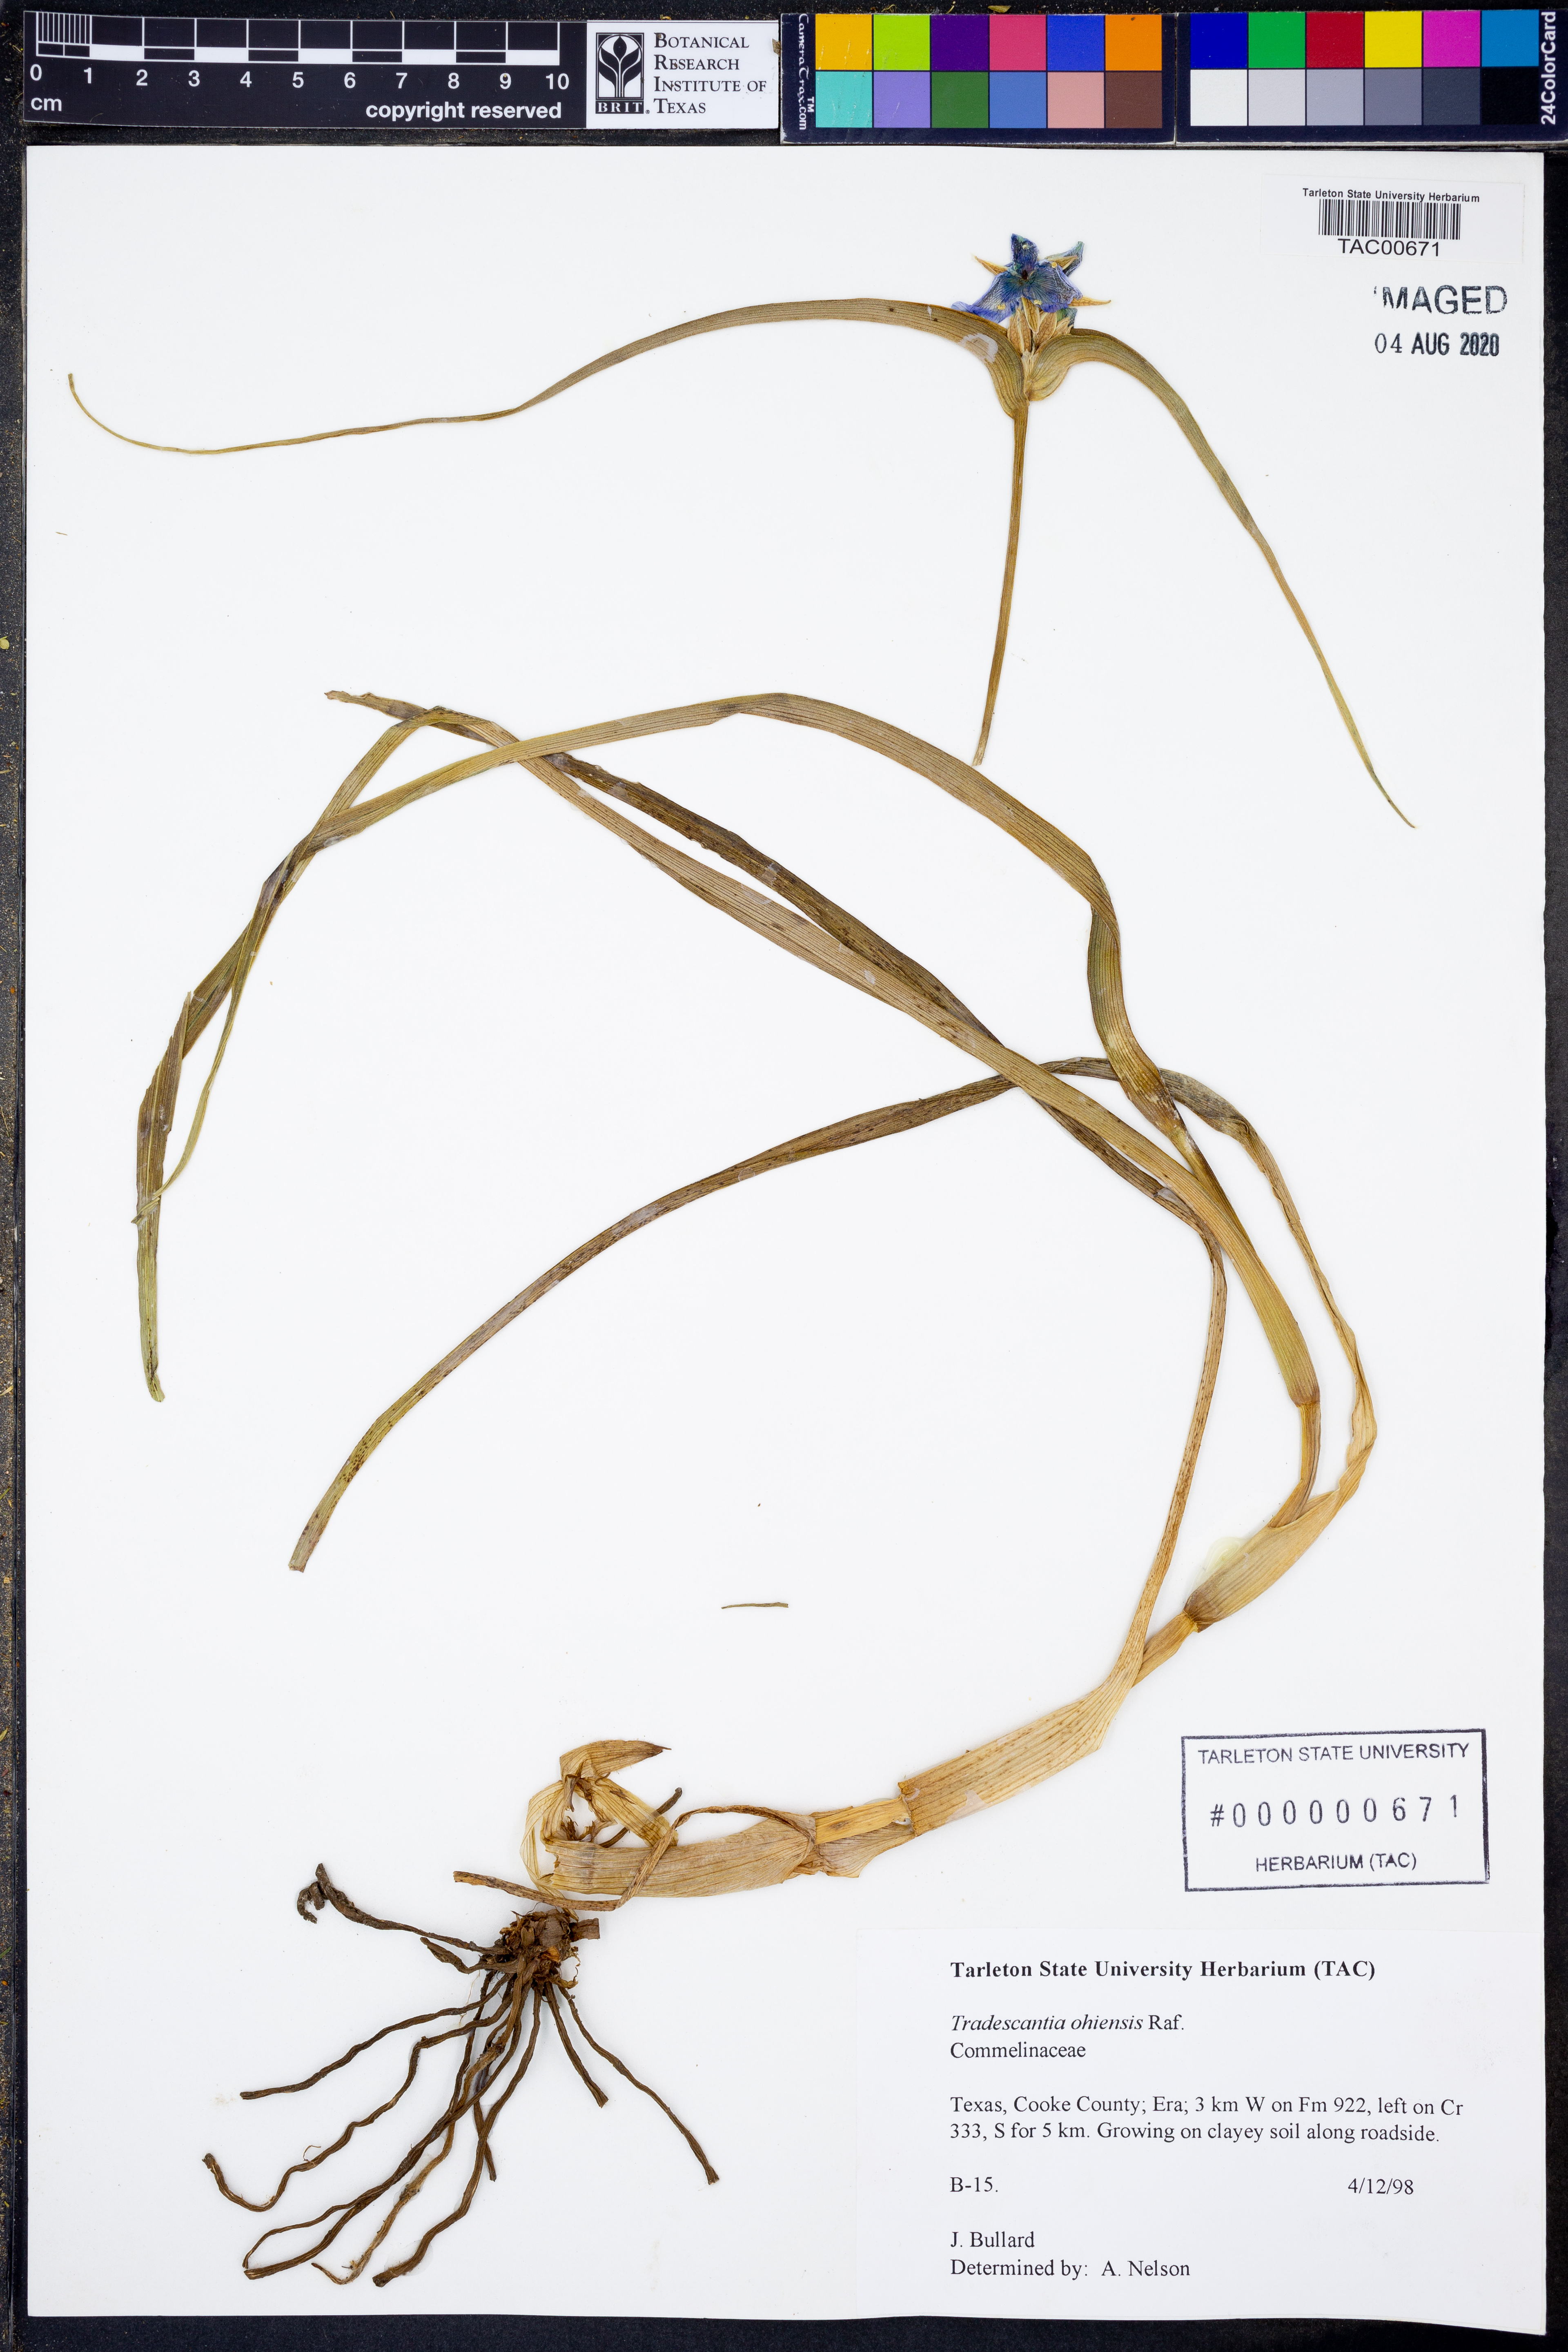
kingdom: Plantae
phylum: Tracheophyta
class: Liliopsida
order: Commelinales
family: Commelinaceae
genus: Tradescantia
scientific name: Tradescantia ohiensis
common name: Ohio spiderwort
